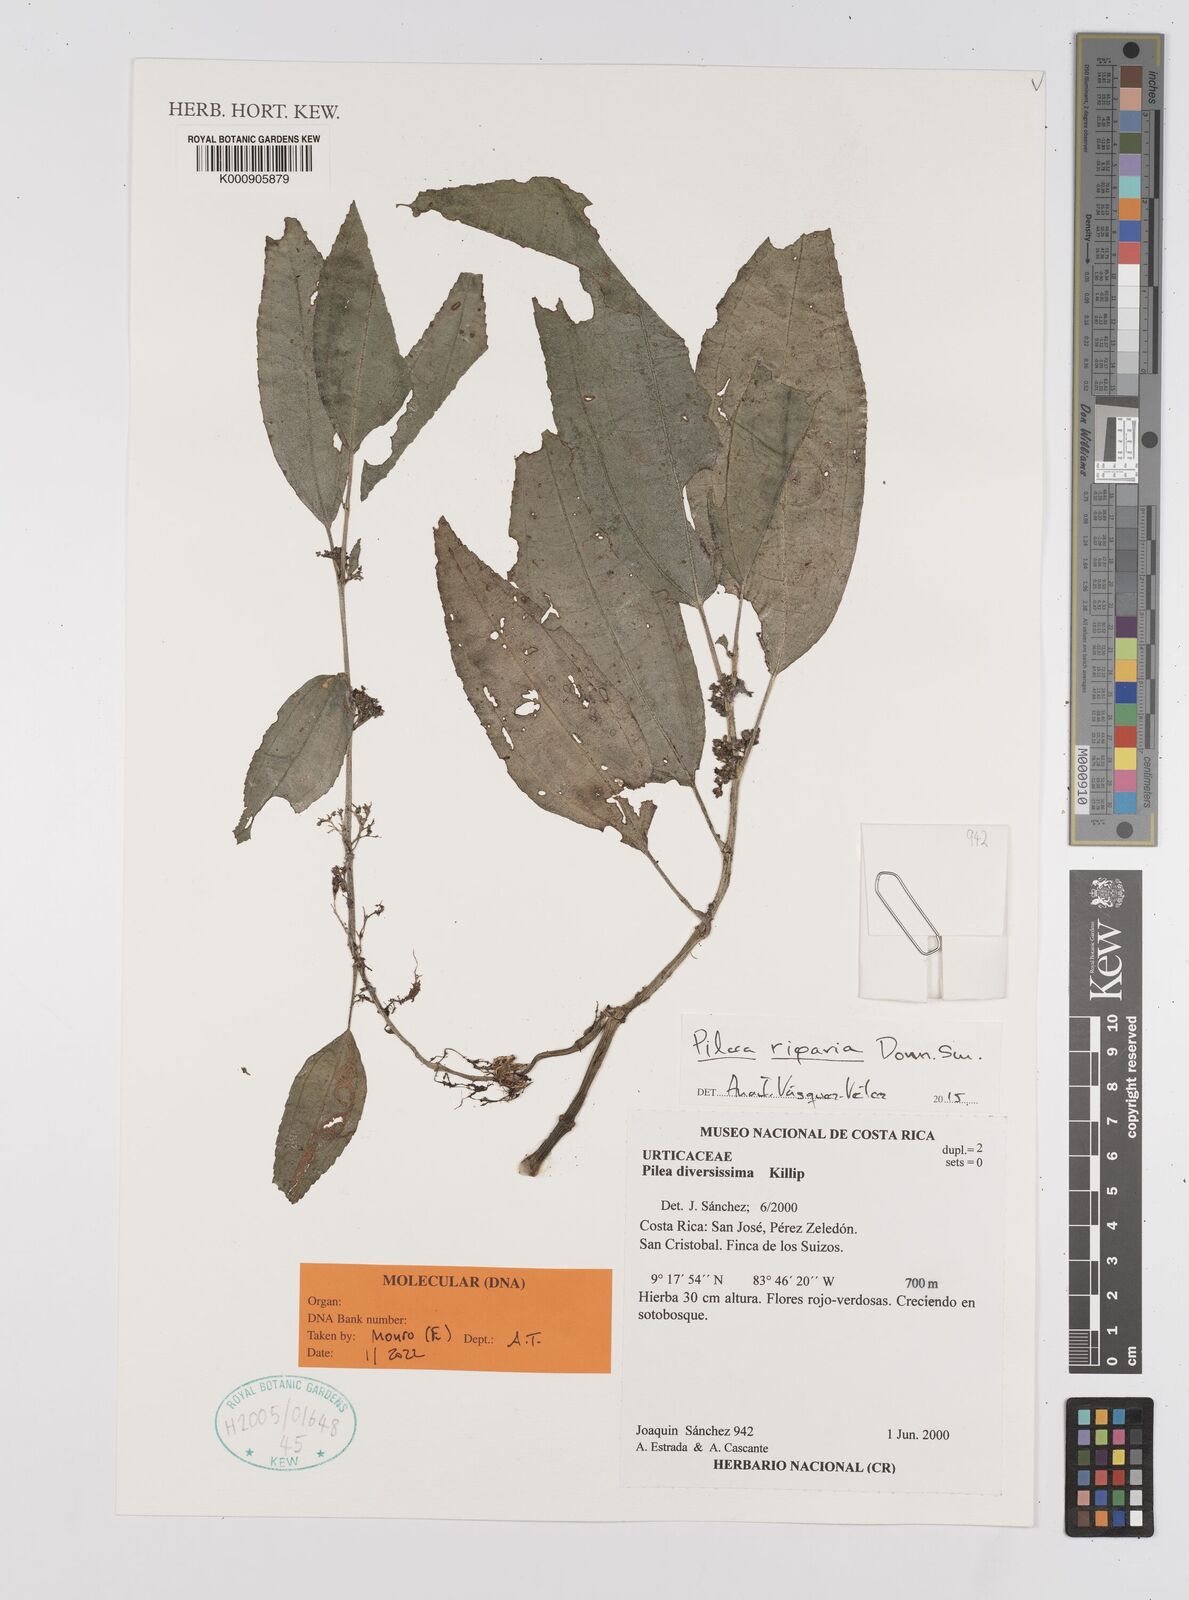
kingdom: Plantae
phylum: Tracheophyta
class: Magnoliopsida
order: Rosales
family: Urticaceae
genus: Pilea
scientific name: Pilea riparia
